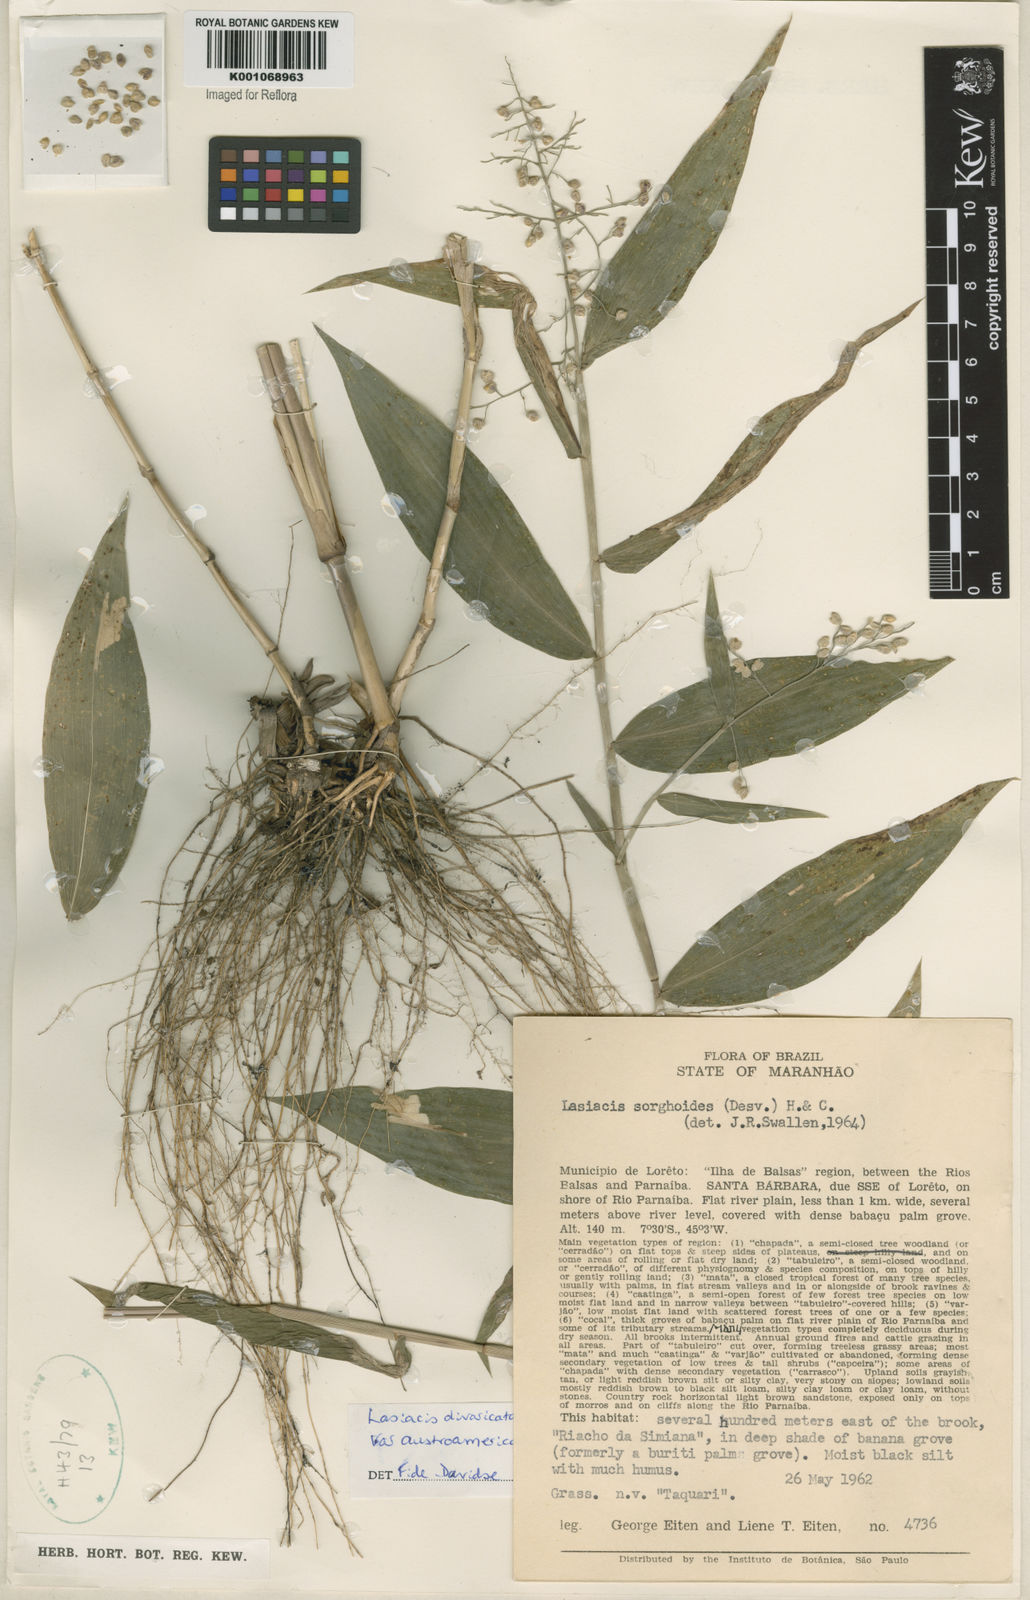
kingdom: Plantae
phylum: Tracheophyta
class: Liliopsida
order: Poales
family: Poaceae
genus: Lasiacis
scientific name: Lasiacis divaricata
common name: Smallcane
